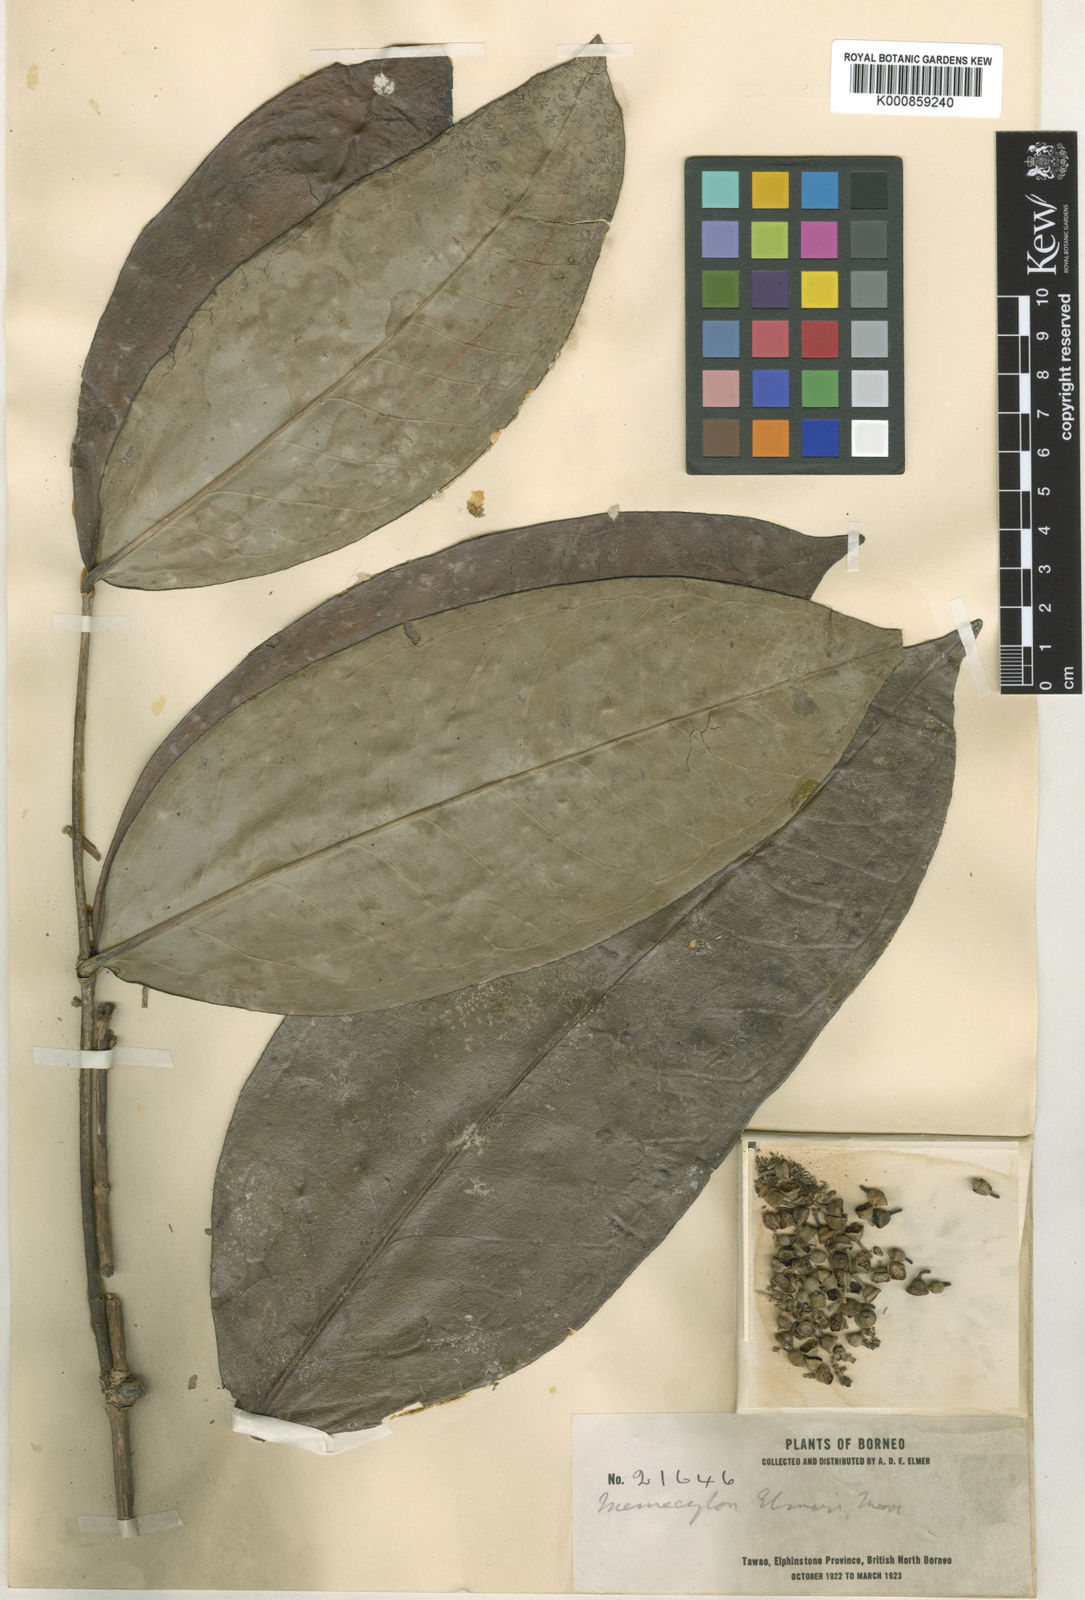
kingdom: Plantae
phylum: Tracheophyta
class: Magnoliopsida
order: Myrtales
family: Melastomataceae
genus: Memecylon
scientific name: Memecylon excelsum
